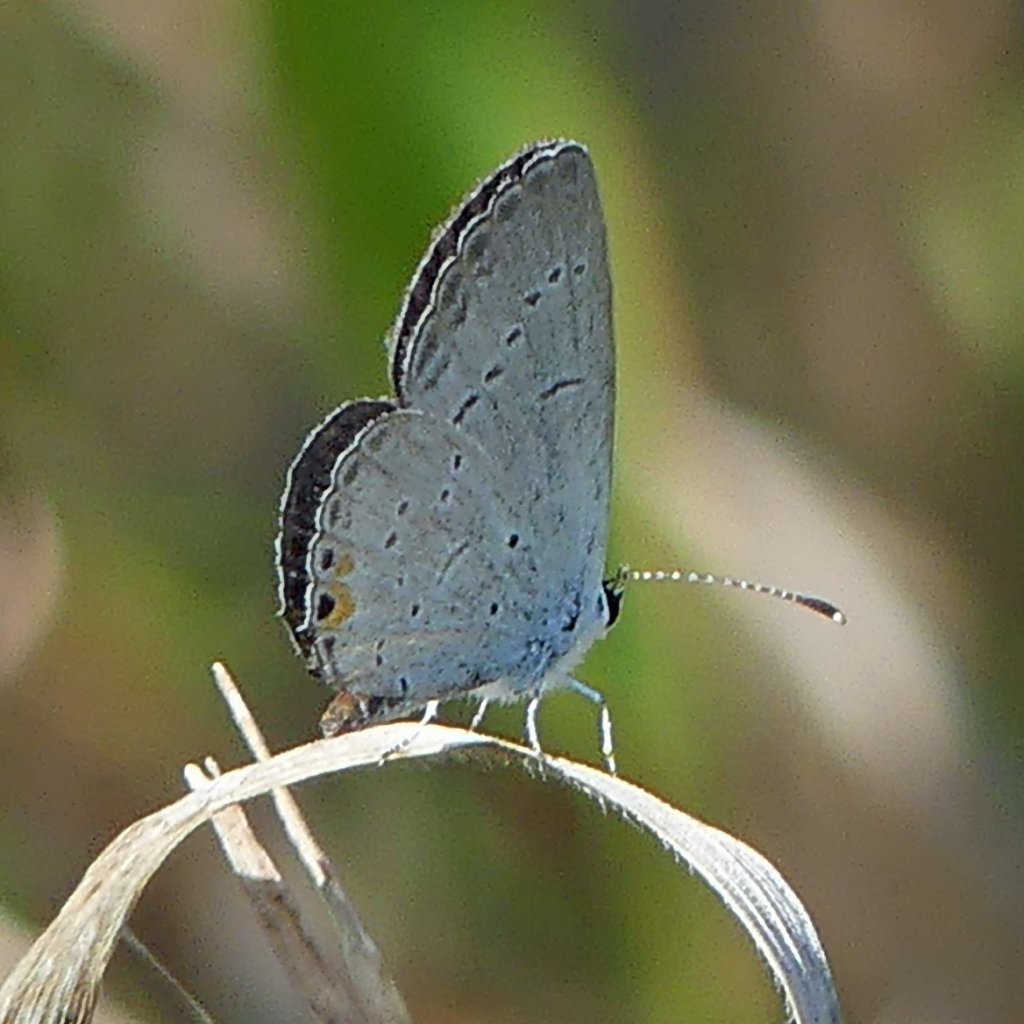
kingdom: Animalia
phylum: Arthropoda
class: Insecta
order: Lepidoptera
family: Lycaenidae
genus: Elkalyce
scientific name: Elkalyce comyntas
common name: Eastern Tailed-Blue
